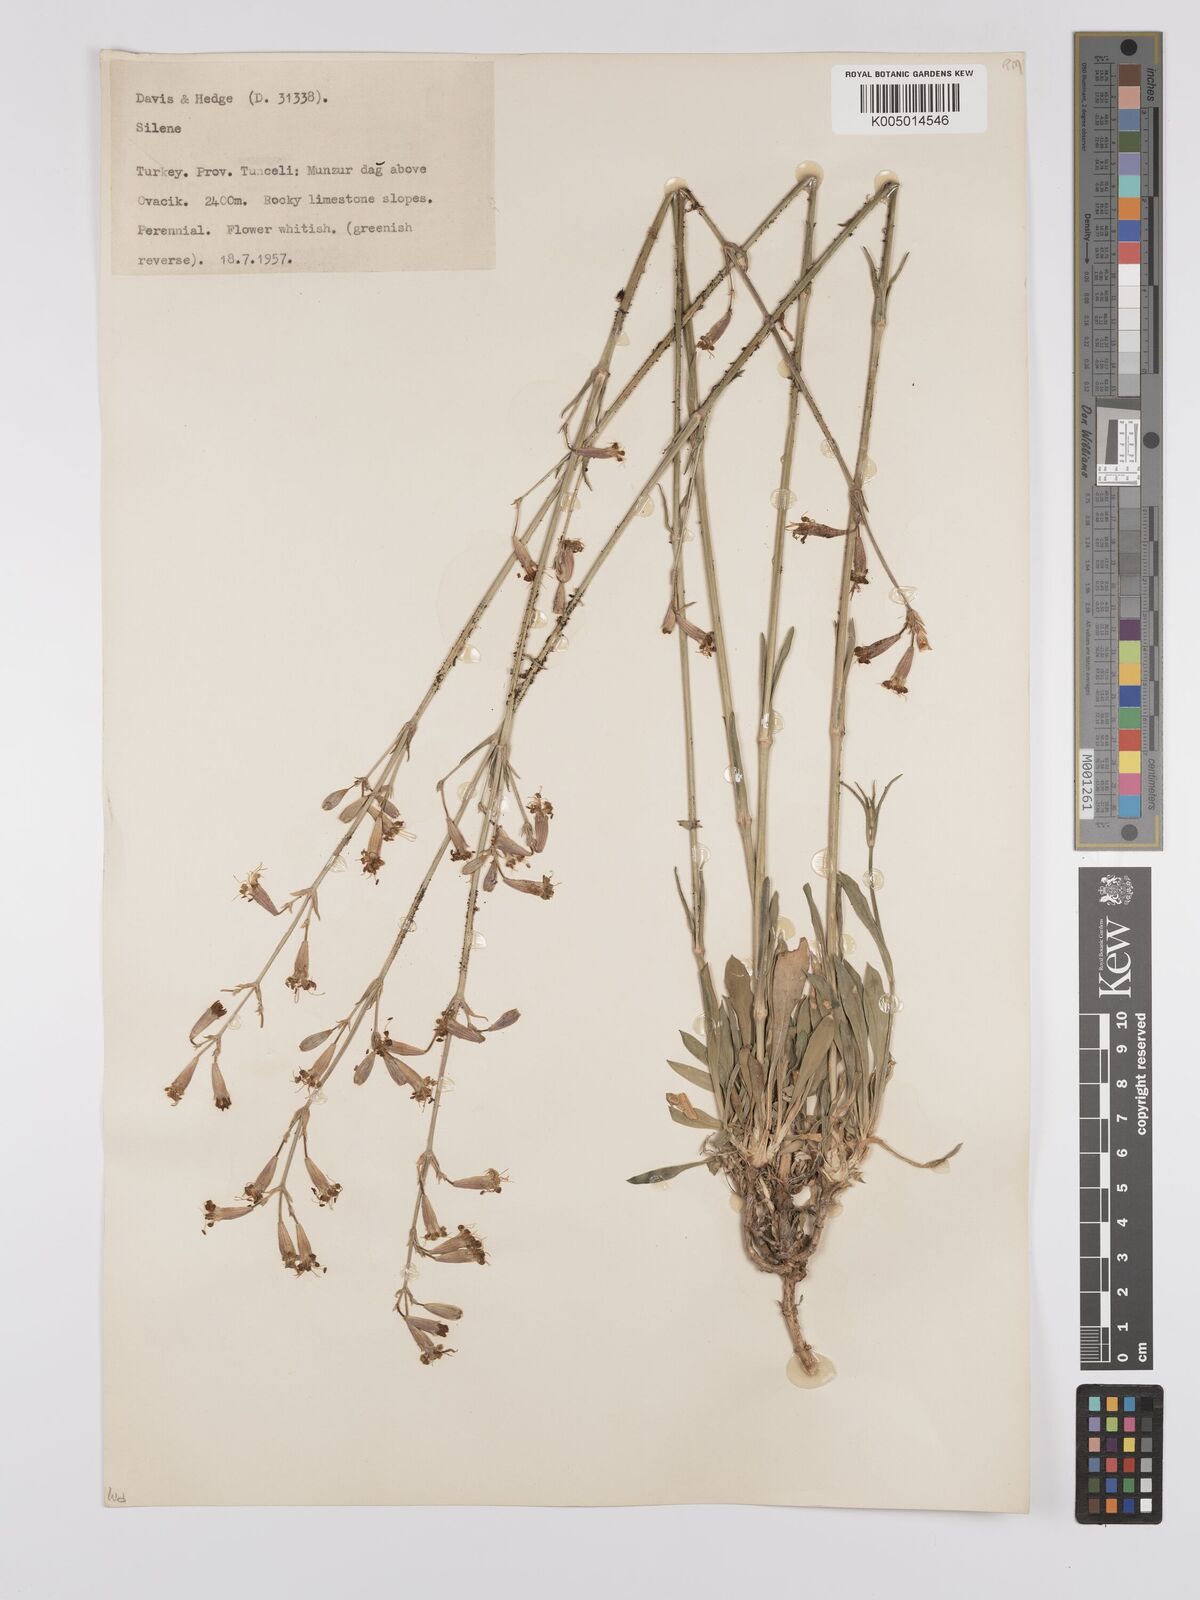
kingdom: Plantae
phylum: Tracheophyta
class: Magnoliopsida
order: Caryophyllales
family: Caryophyllaceae
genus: Silene
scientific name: Silene
